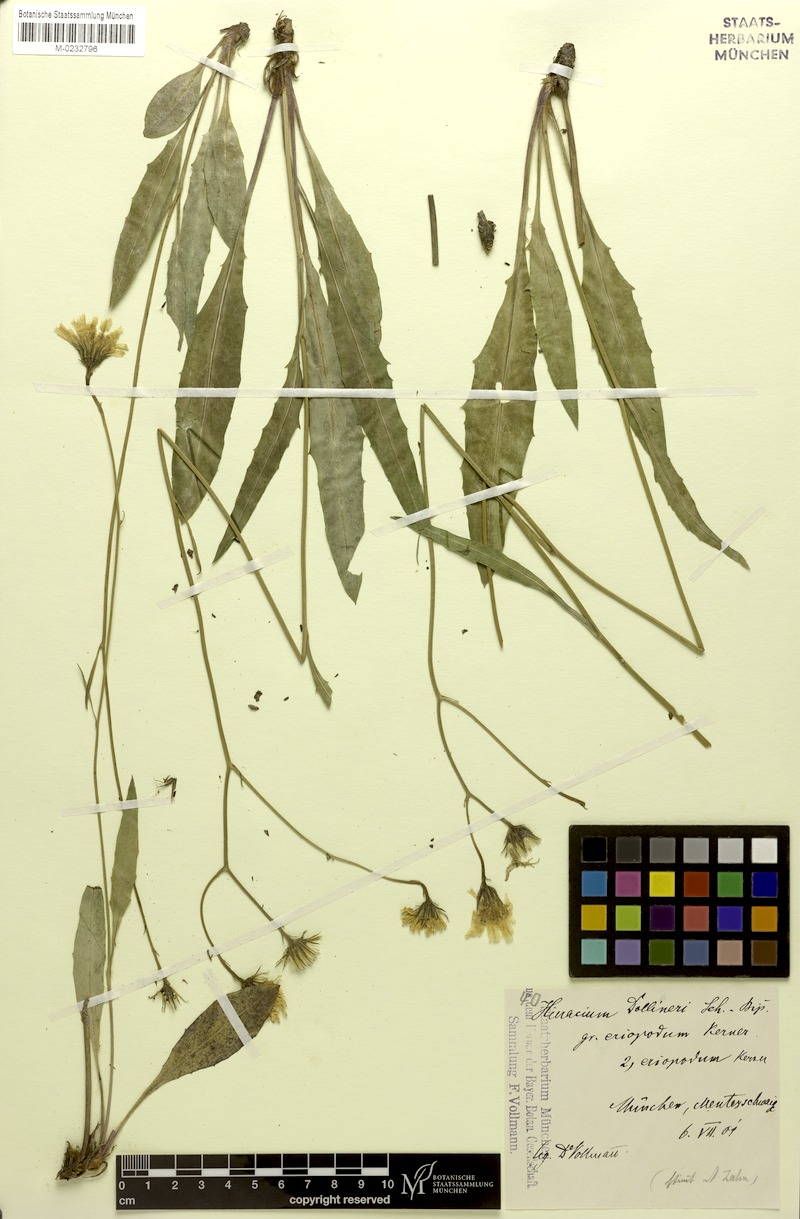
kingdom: Plantae
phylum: Tracheophyta
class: Magnoliopsida
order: Asterales
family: Asteraceae
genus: Hieracium
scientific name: Hieracium dollineri
